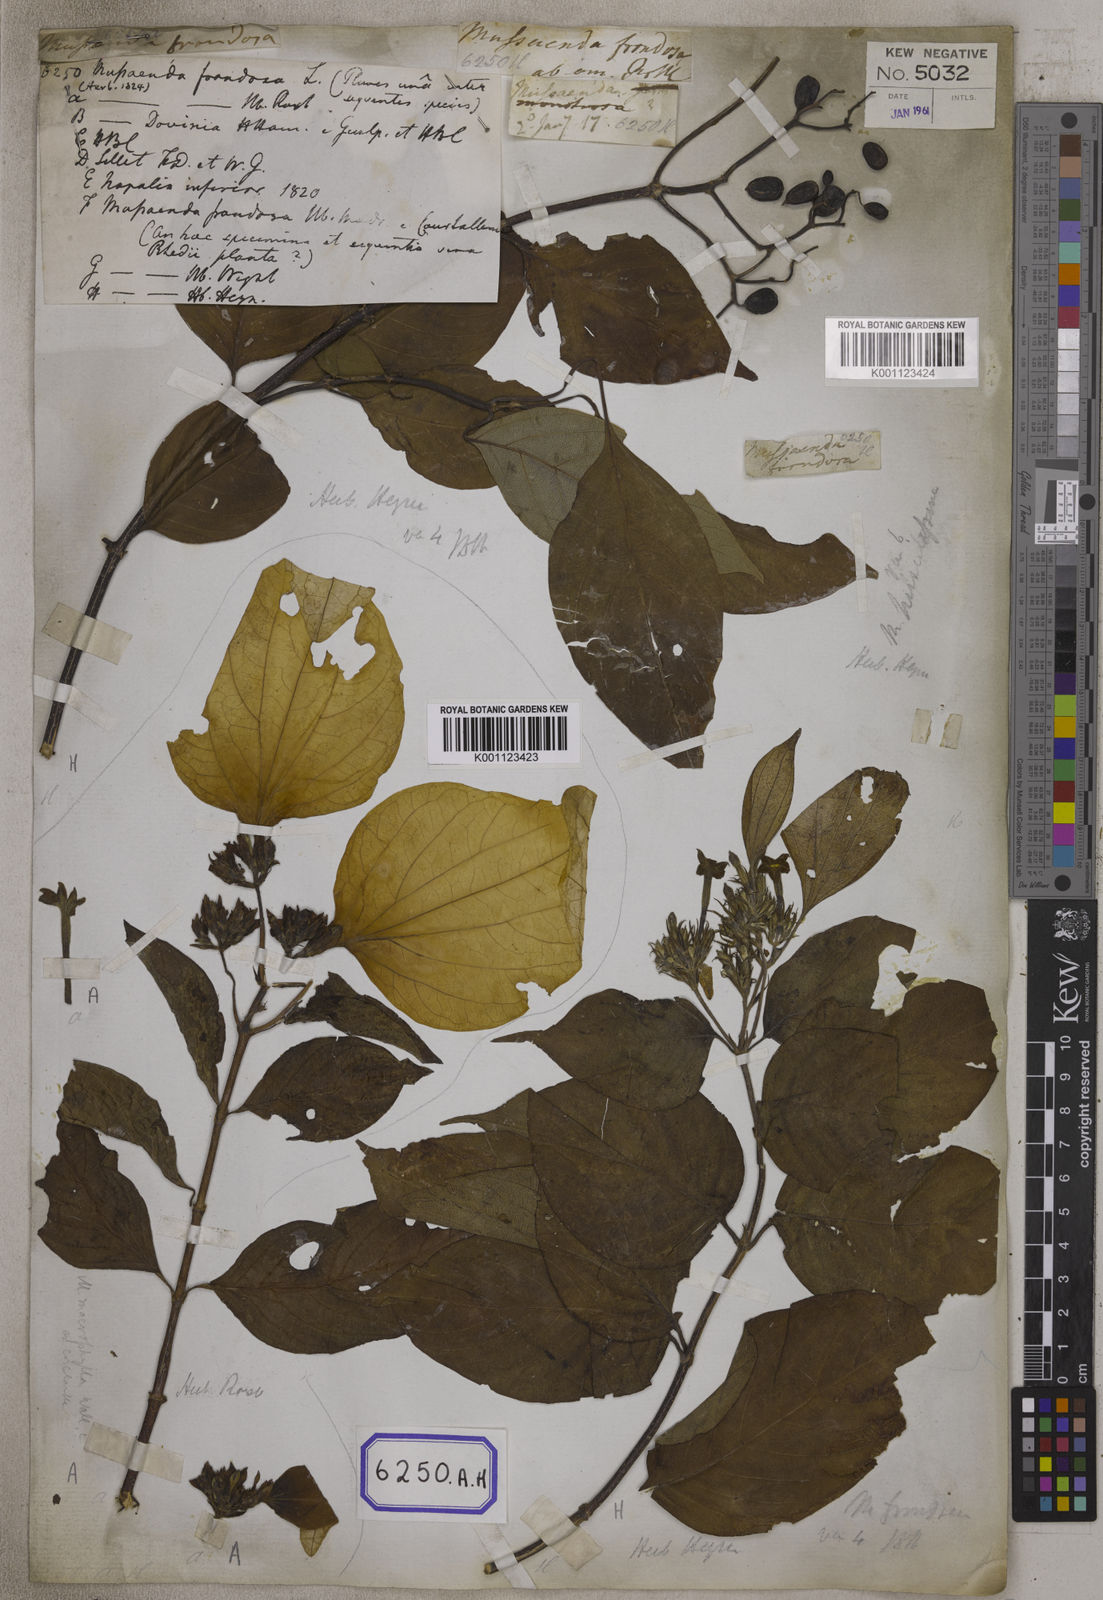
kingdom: Plantae
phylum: Tracheophyta
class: Magnoliopsida
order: Gentianales
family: Rubiaceae
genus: Mussaenda
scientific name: Mussaenda
